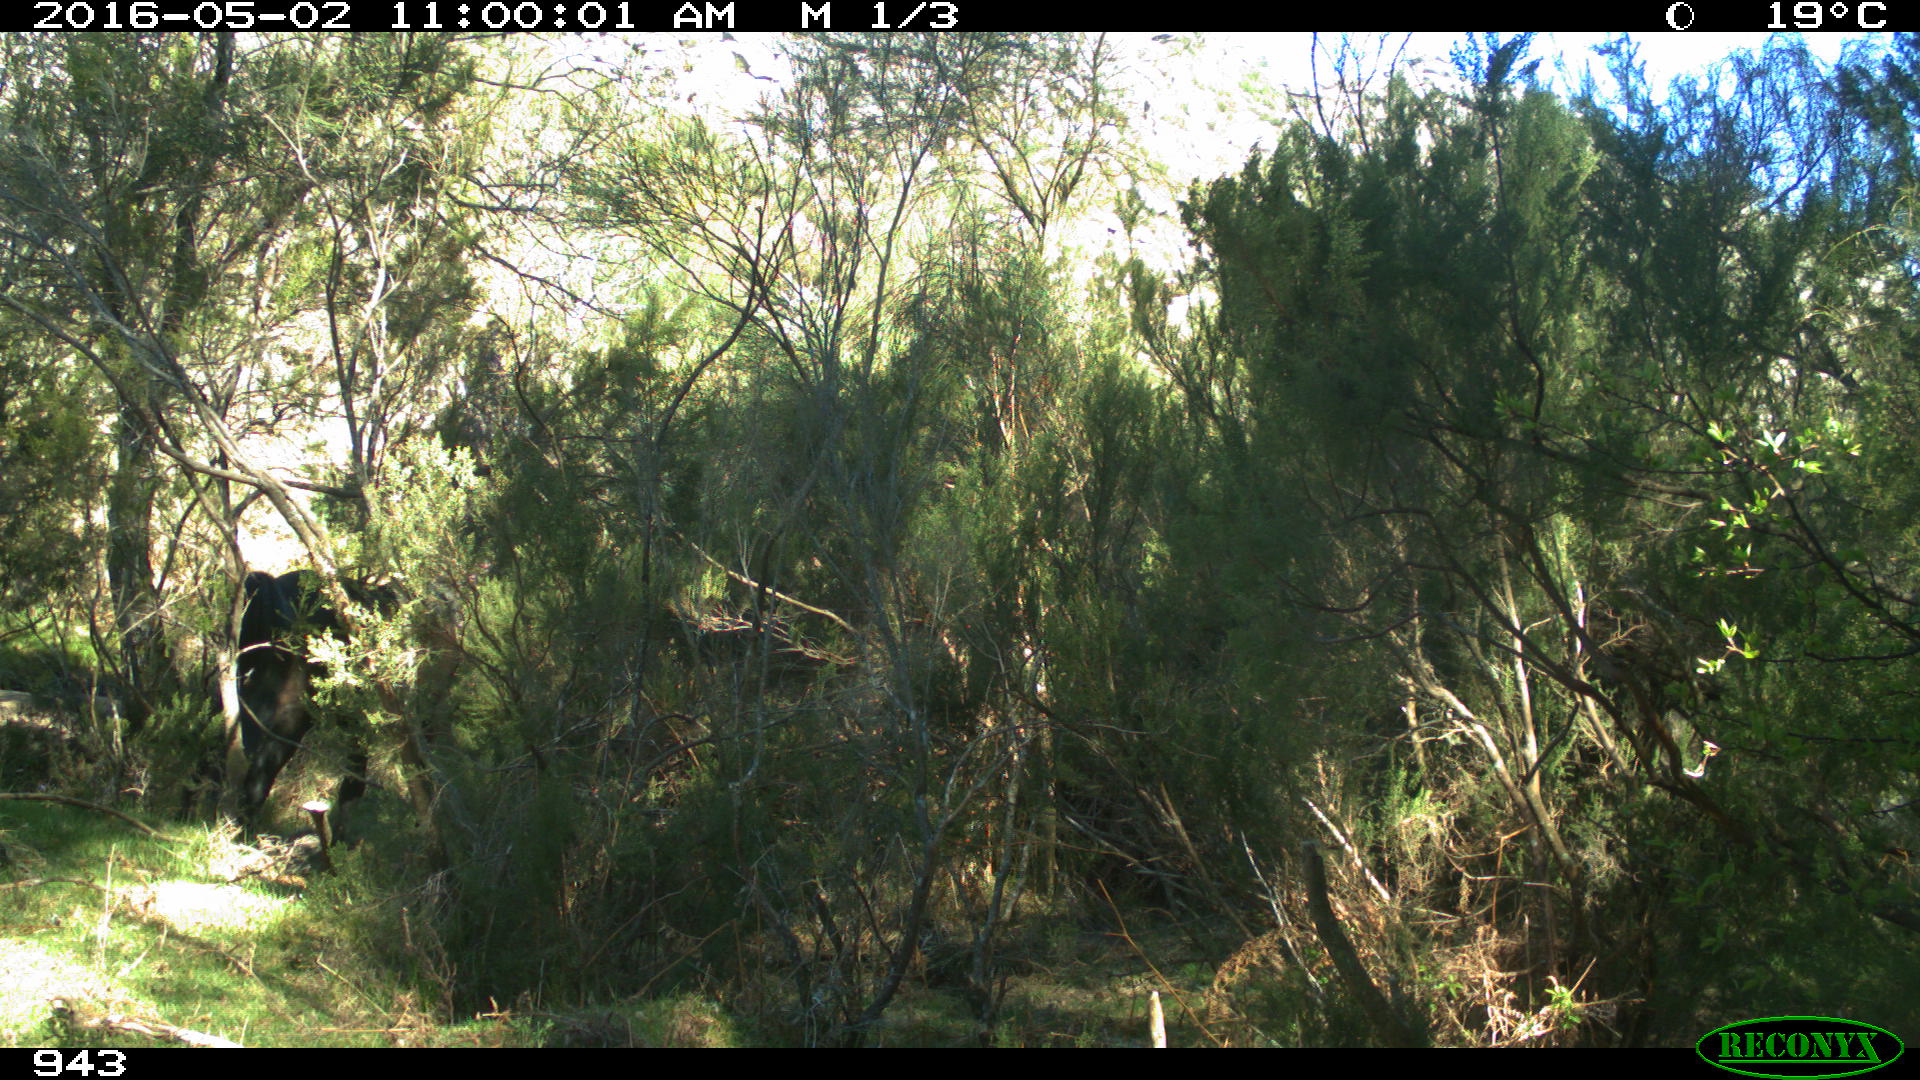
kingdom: Animalia
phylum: Chordata
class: Mammalia
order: Perissodactyla
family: Equidae
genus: Equus
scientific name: Equus caballus
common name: Horse
